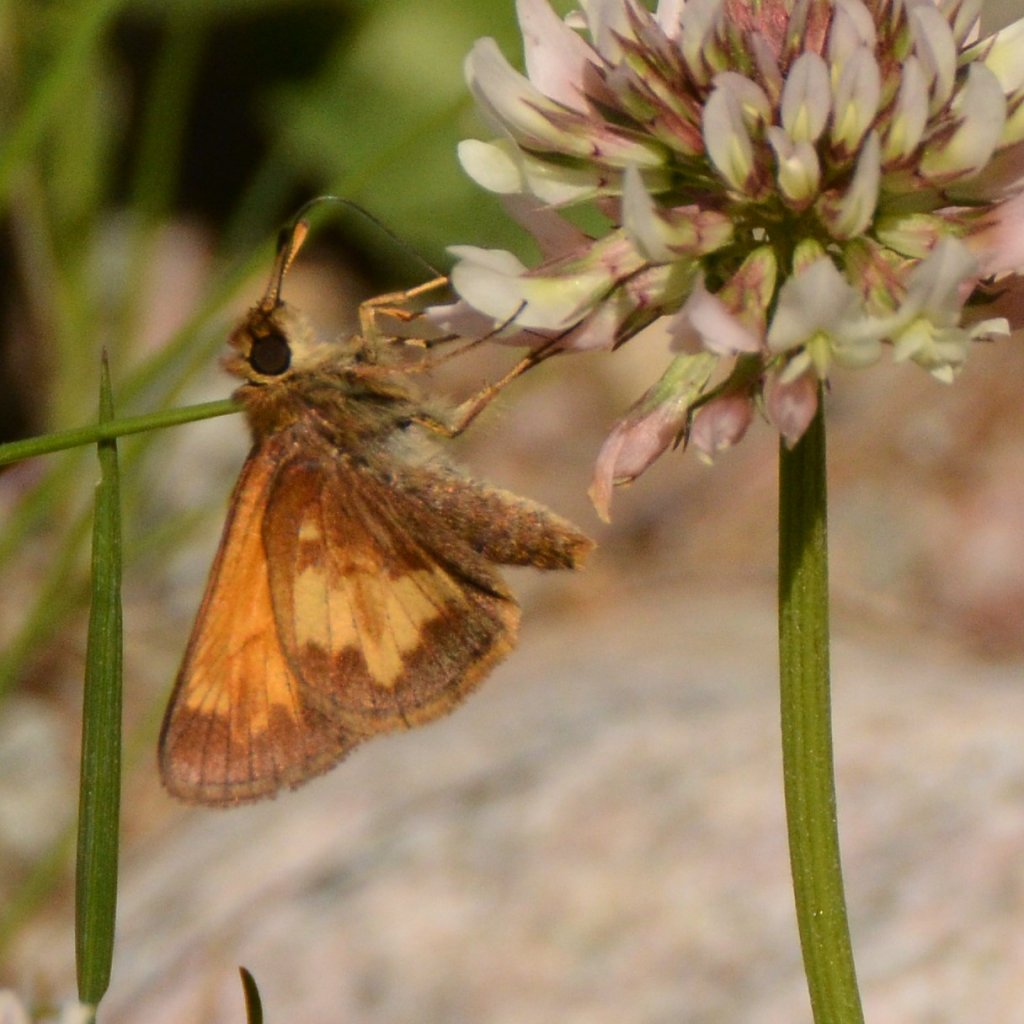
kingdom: Animalia
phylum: Arthropoda
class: Insecta
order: Lepidoptera
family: Hesperiidae
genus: Lon
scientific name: Lon hobomok
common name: Hobomok Skipper
